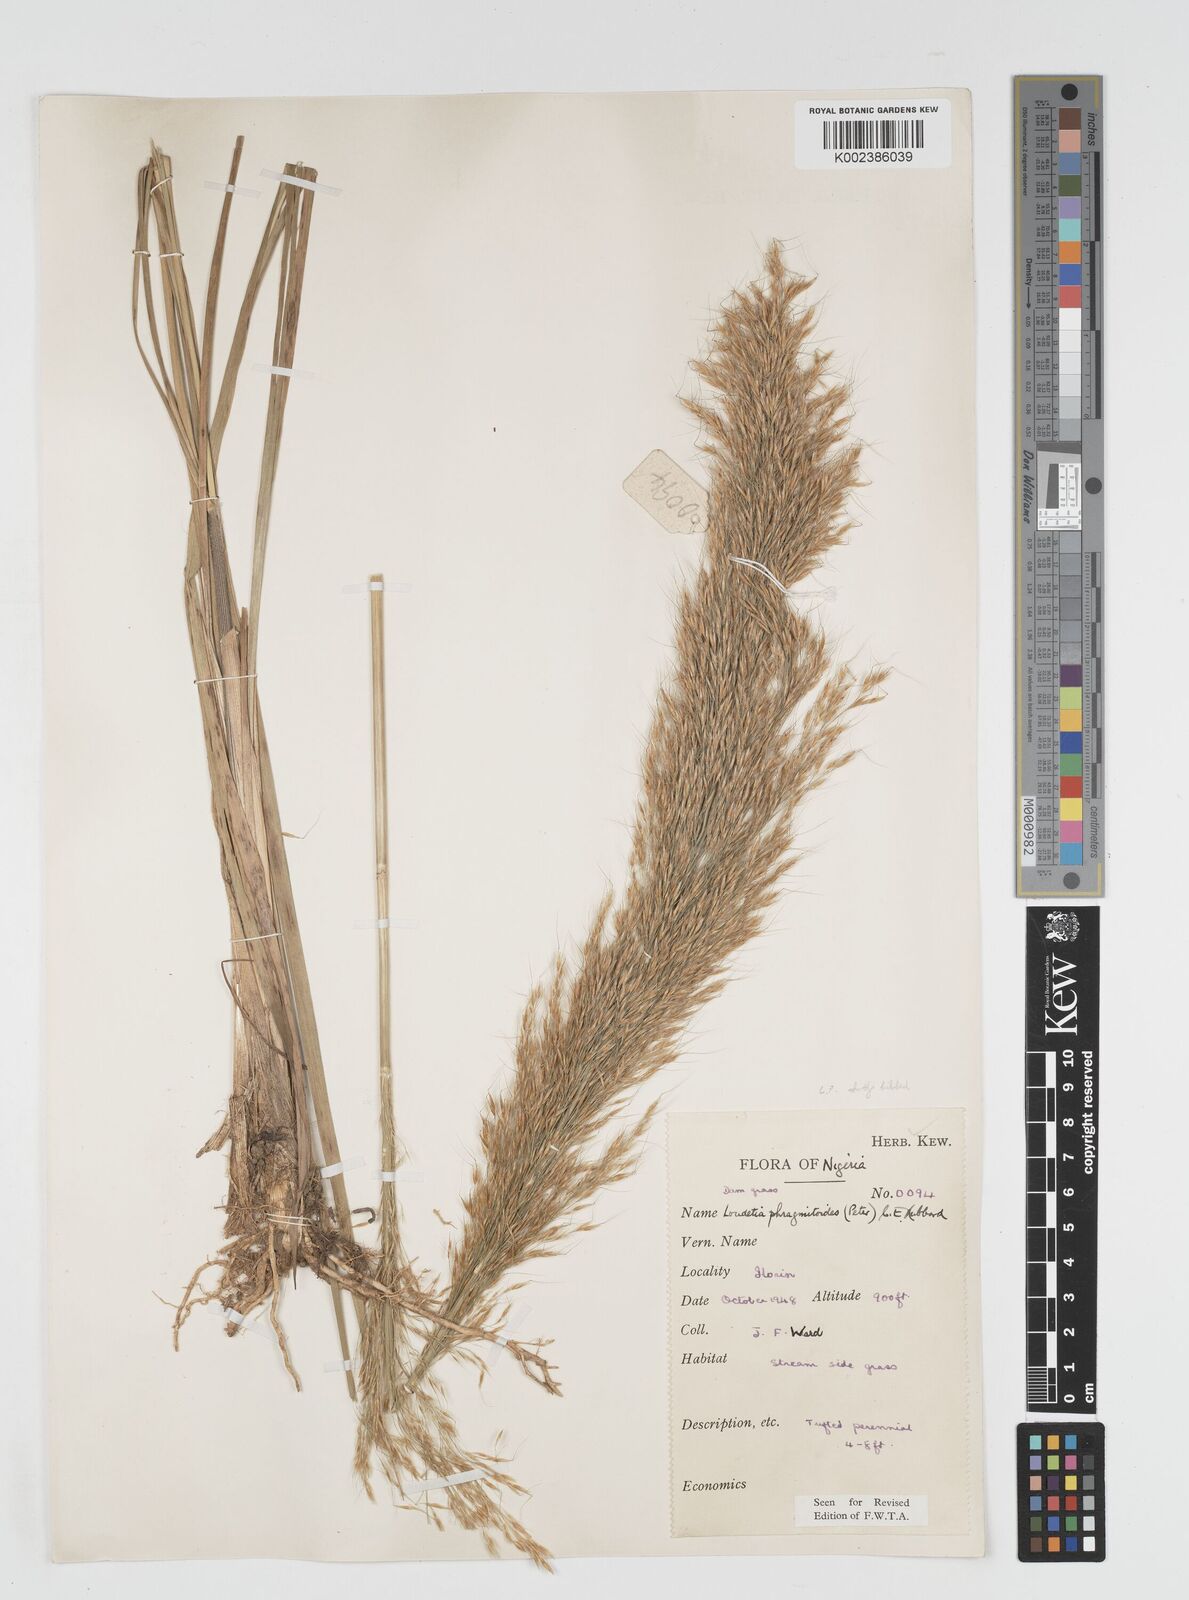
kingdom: Plantae
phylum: Tracheophyta
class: Liliopsida
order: Poales
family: Poaceae
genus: Loudetia
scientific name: Loudetia phragmitoides
